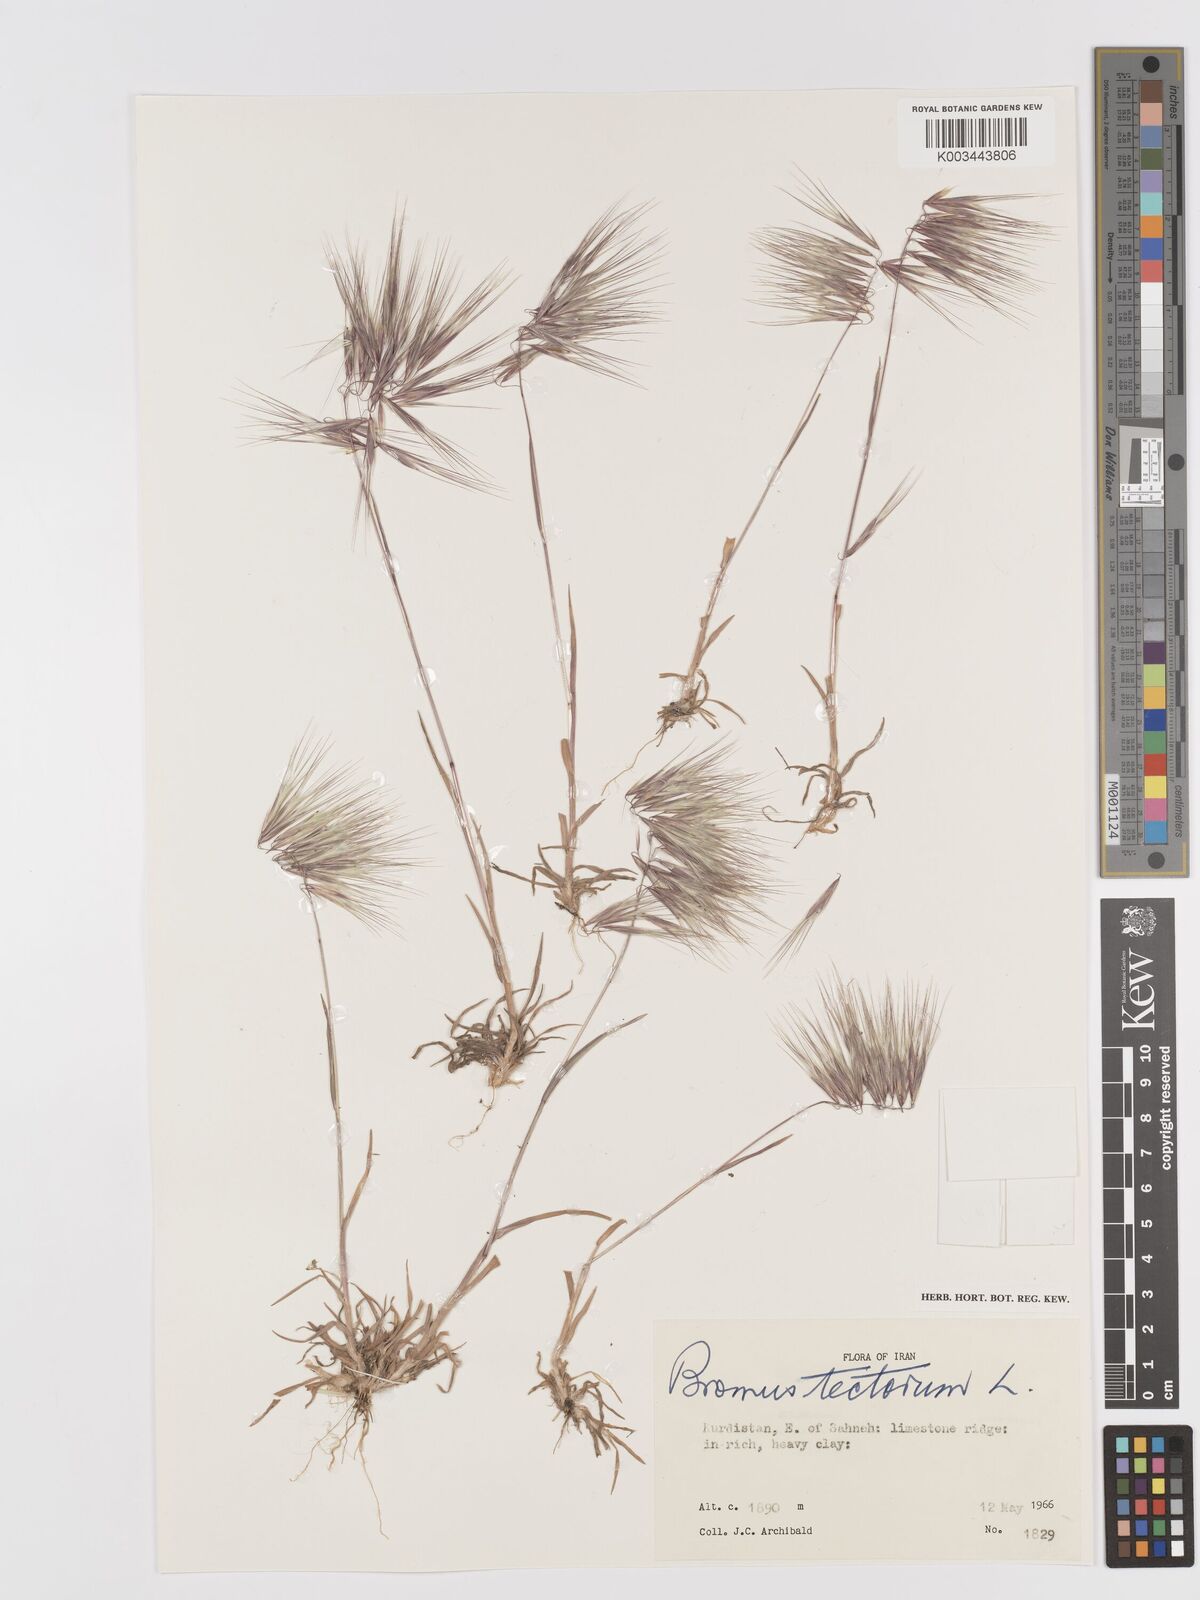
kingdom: Plantae
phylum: Tracheophyta
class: Liliopsida
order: Poales
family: Poaceae
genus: Bromus
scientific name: Bromus tectorum
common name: Cheatgrass
